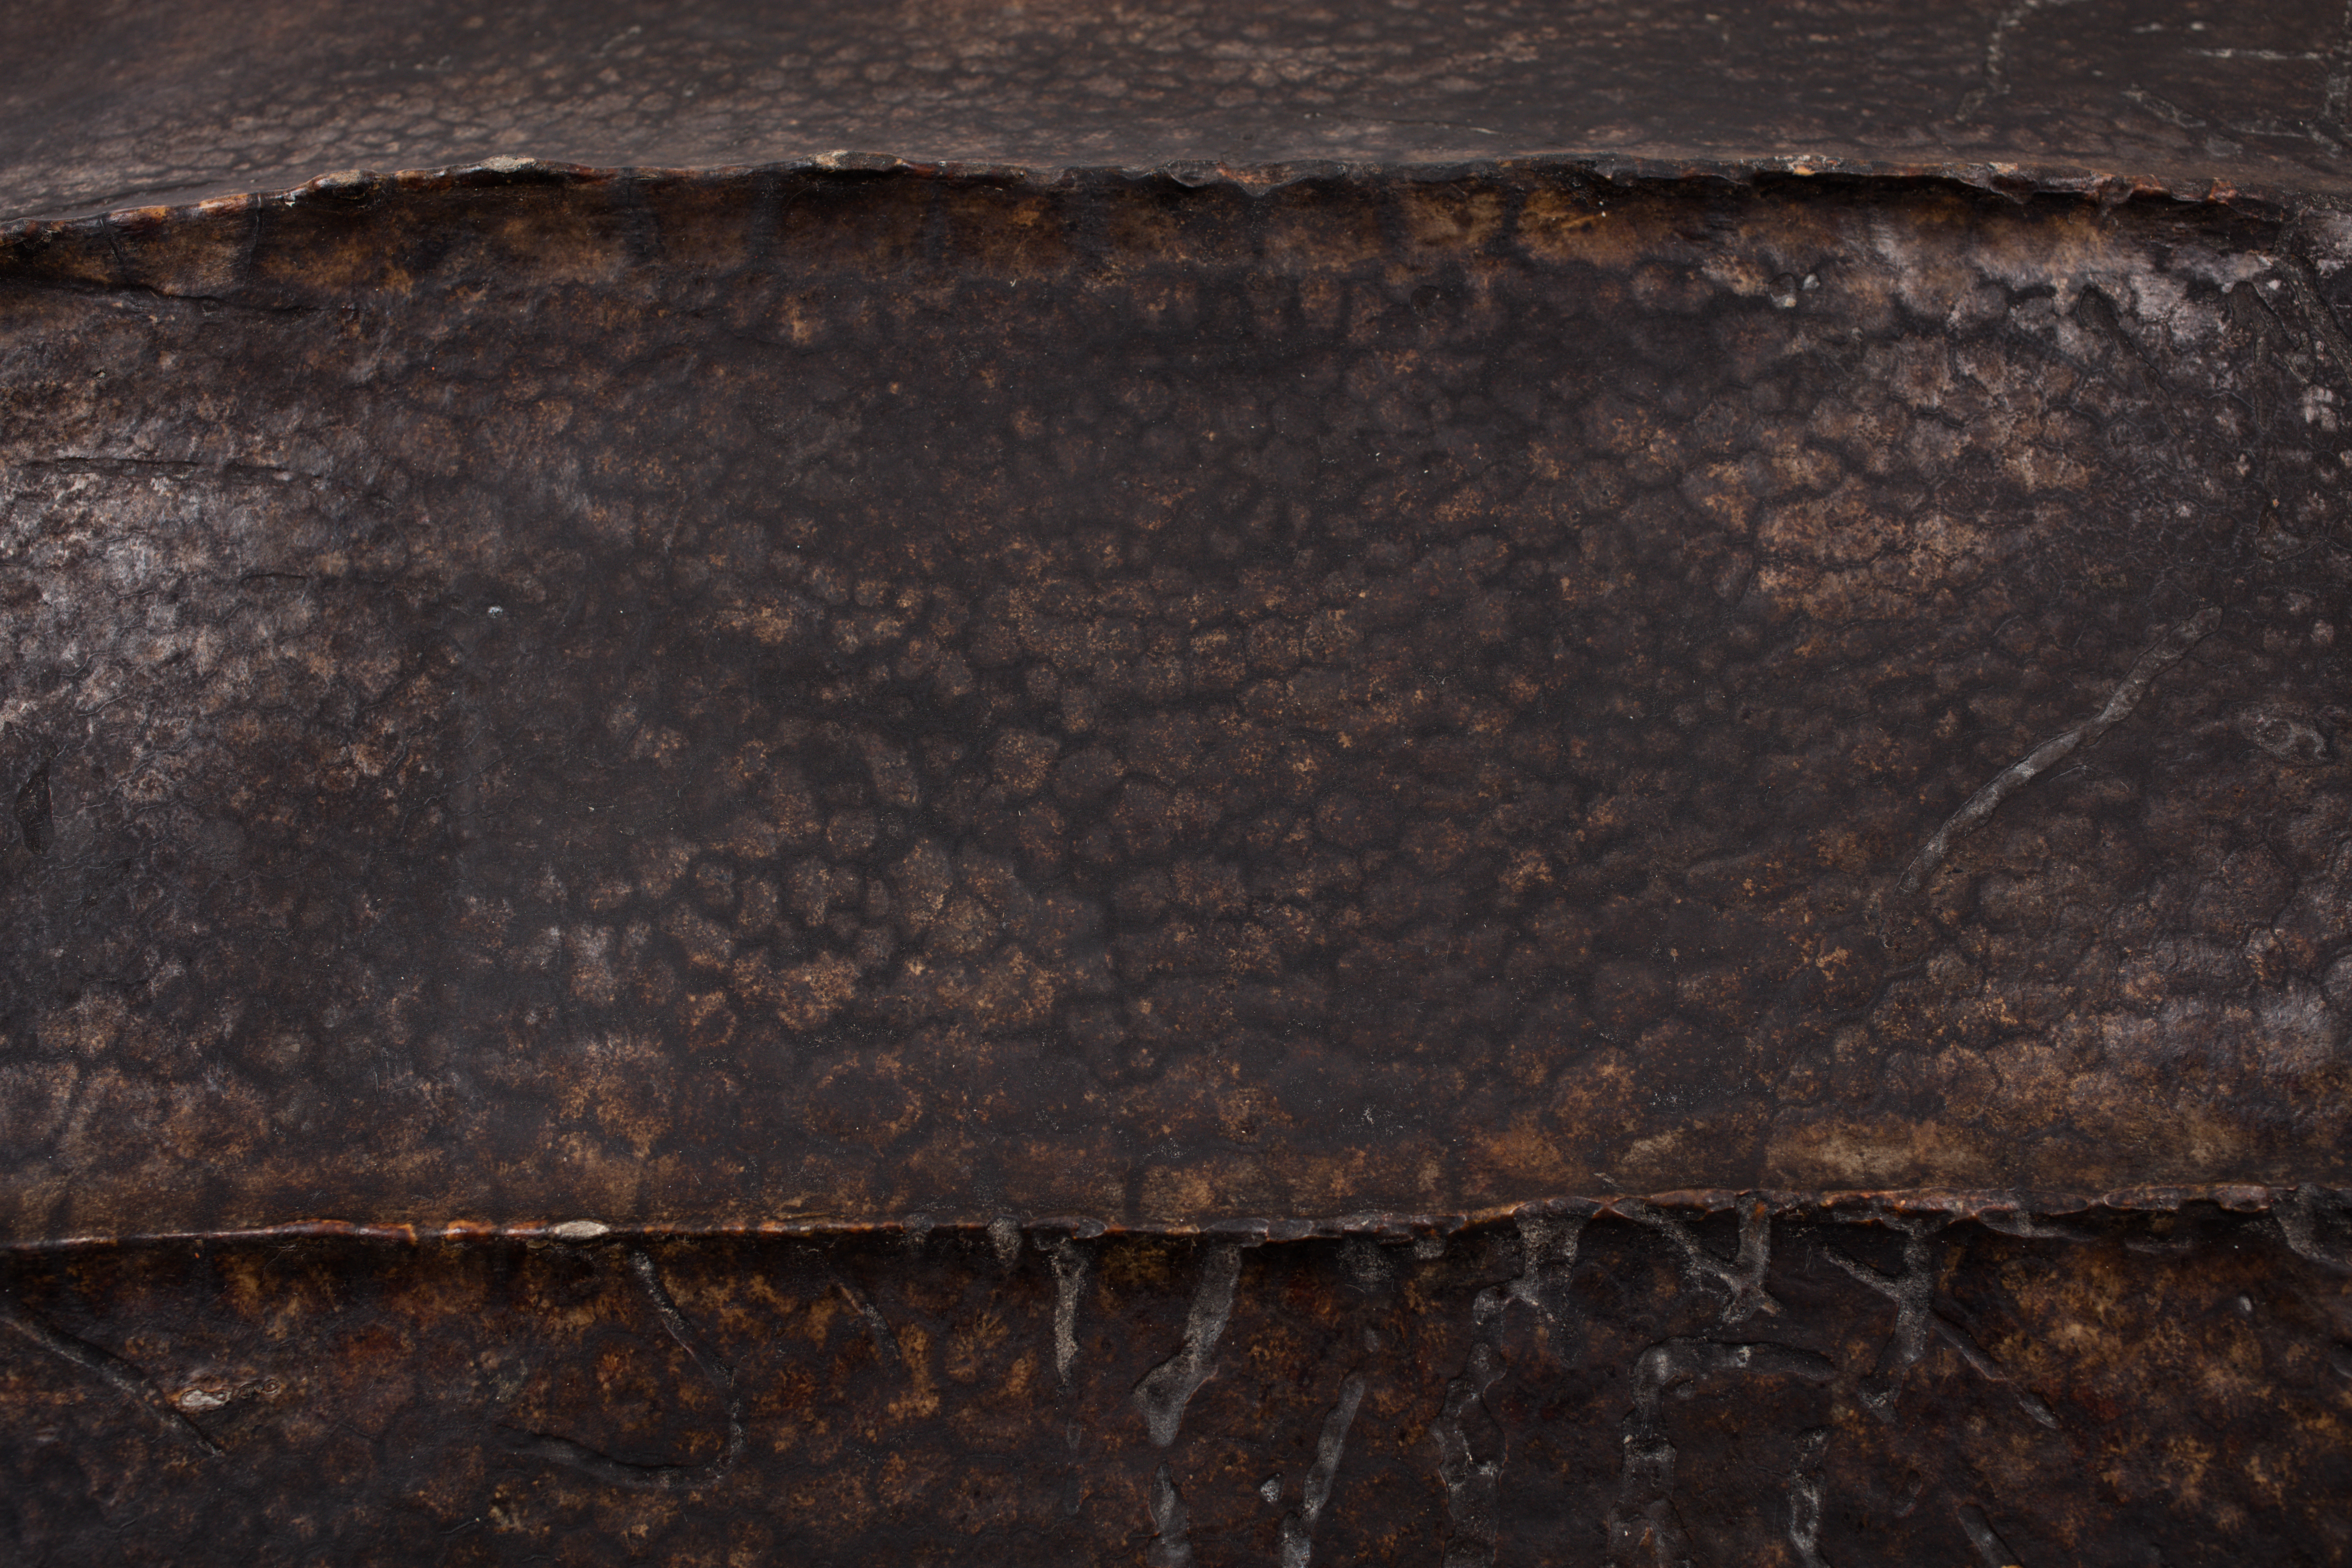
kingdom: Animalia
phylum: Chordata
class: Testudines
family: Dermochelyidae
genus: Dermochelys
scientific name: Dermochelys coriacea
